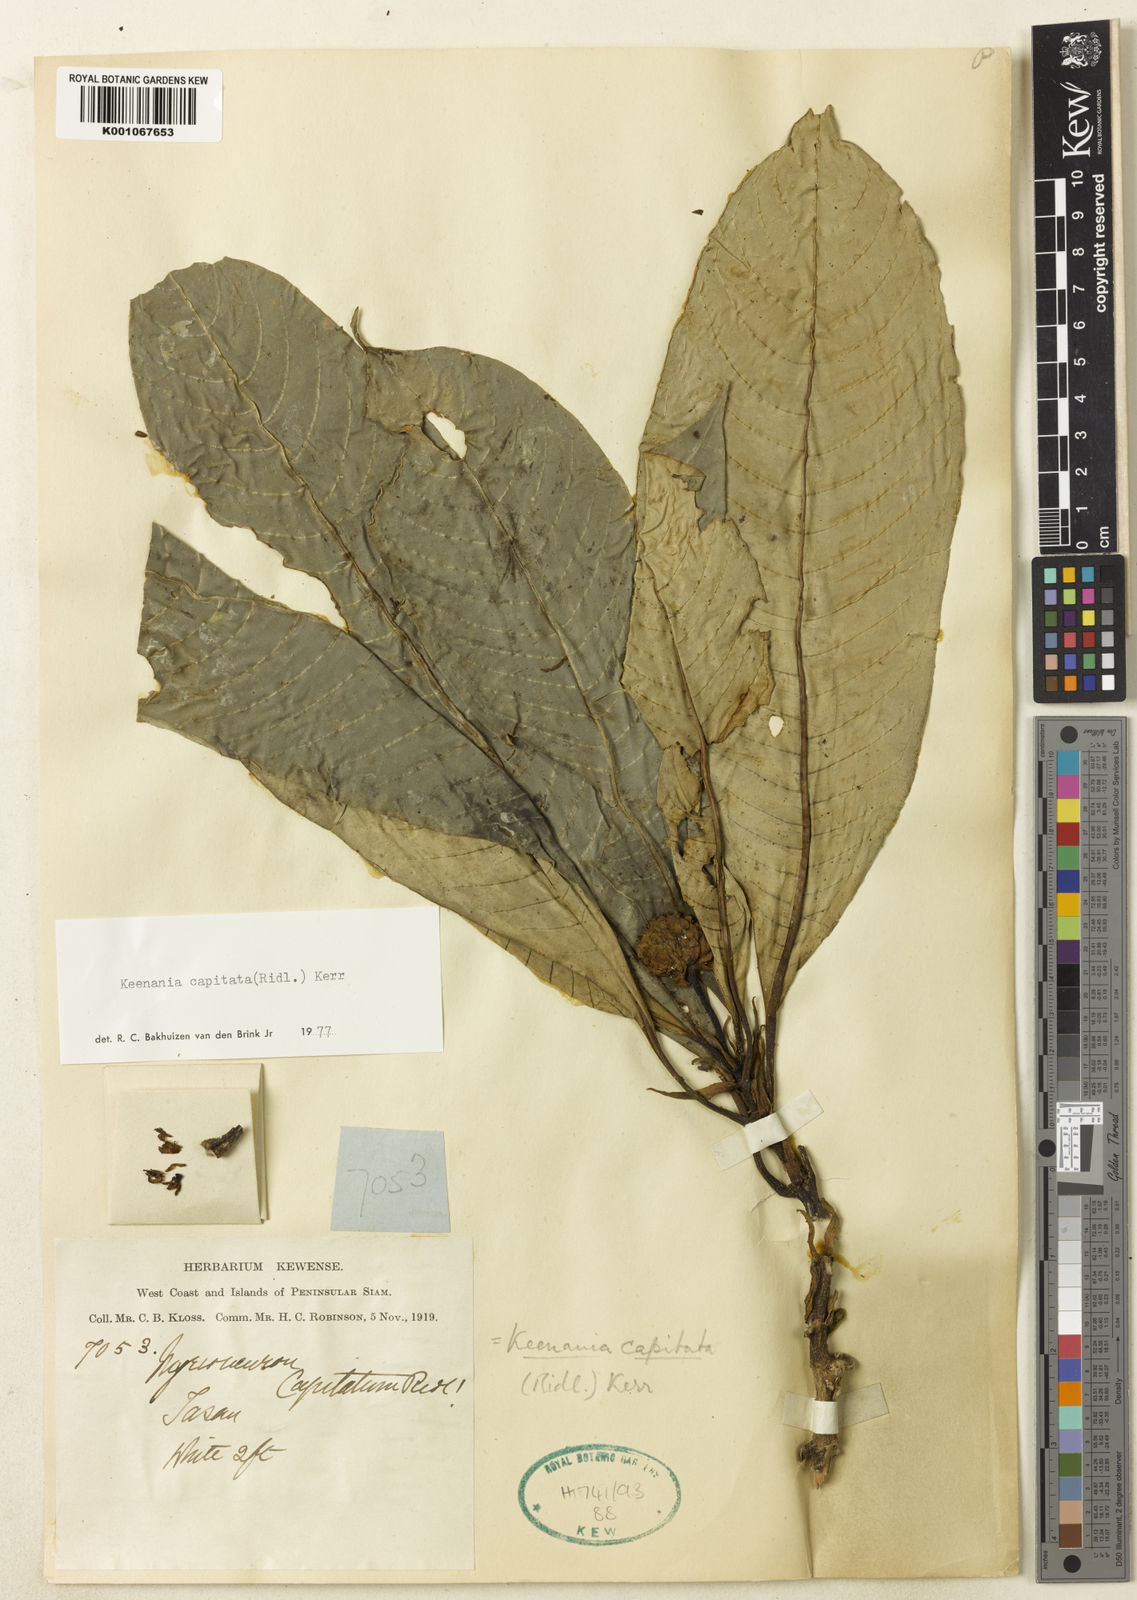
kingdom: Plantae
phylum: Tracheophyta
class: Magnoliopsida
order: Gentianales
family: Rubiaceae
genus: Ophiorrhiza
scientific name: Ophiorrhiza
